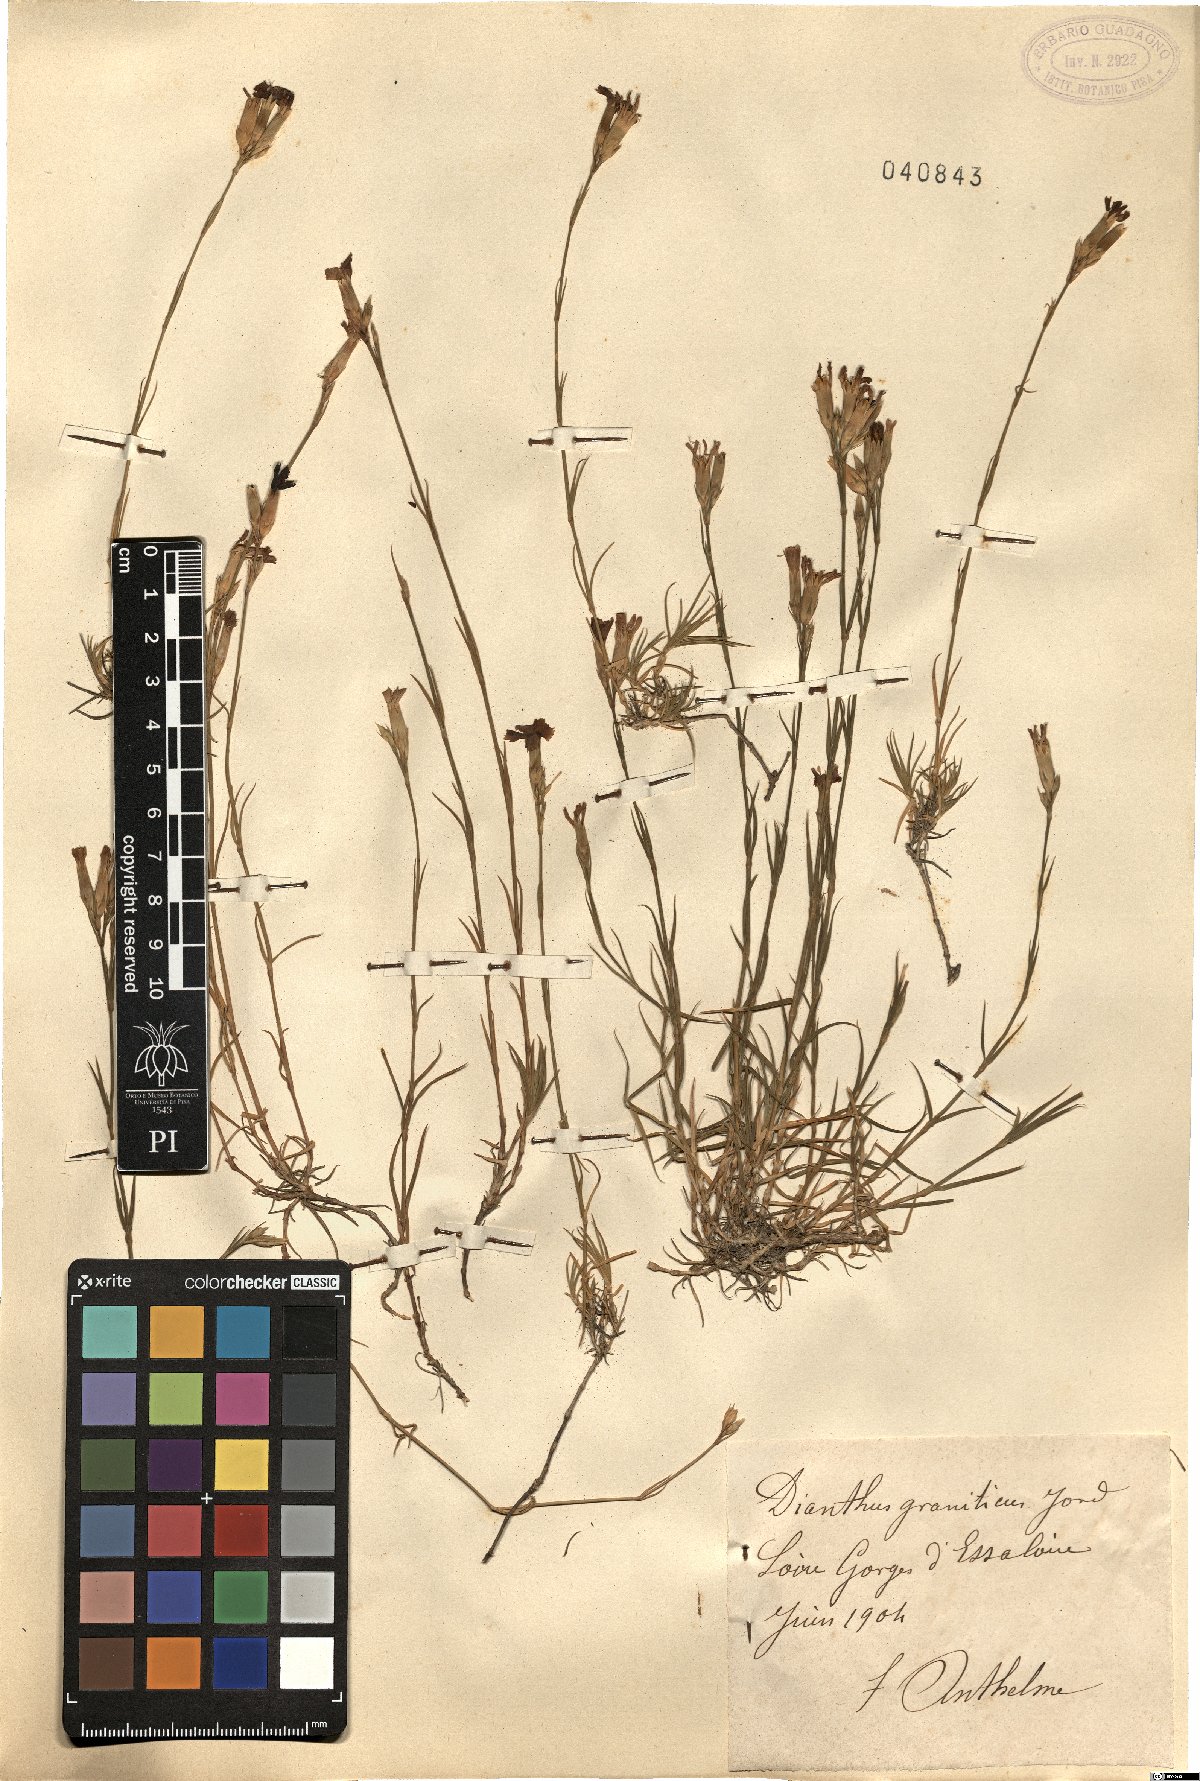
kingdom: Plantae
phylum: Tracheophyta
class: Magnoliopsida
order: Caryophyllales
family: Caryophyllaceae
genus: Dianthus
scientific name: Dianthus graniticus
